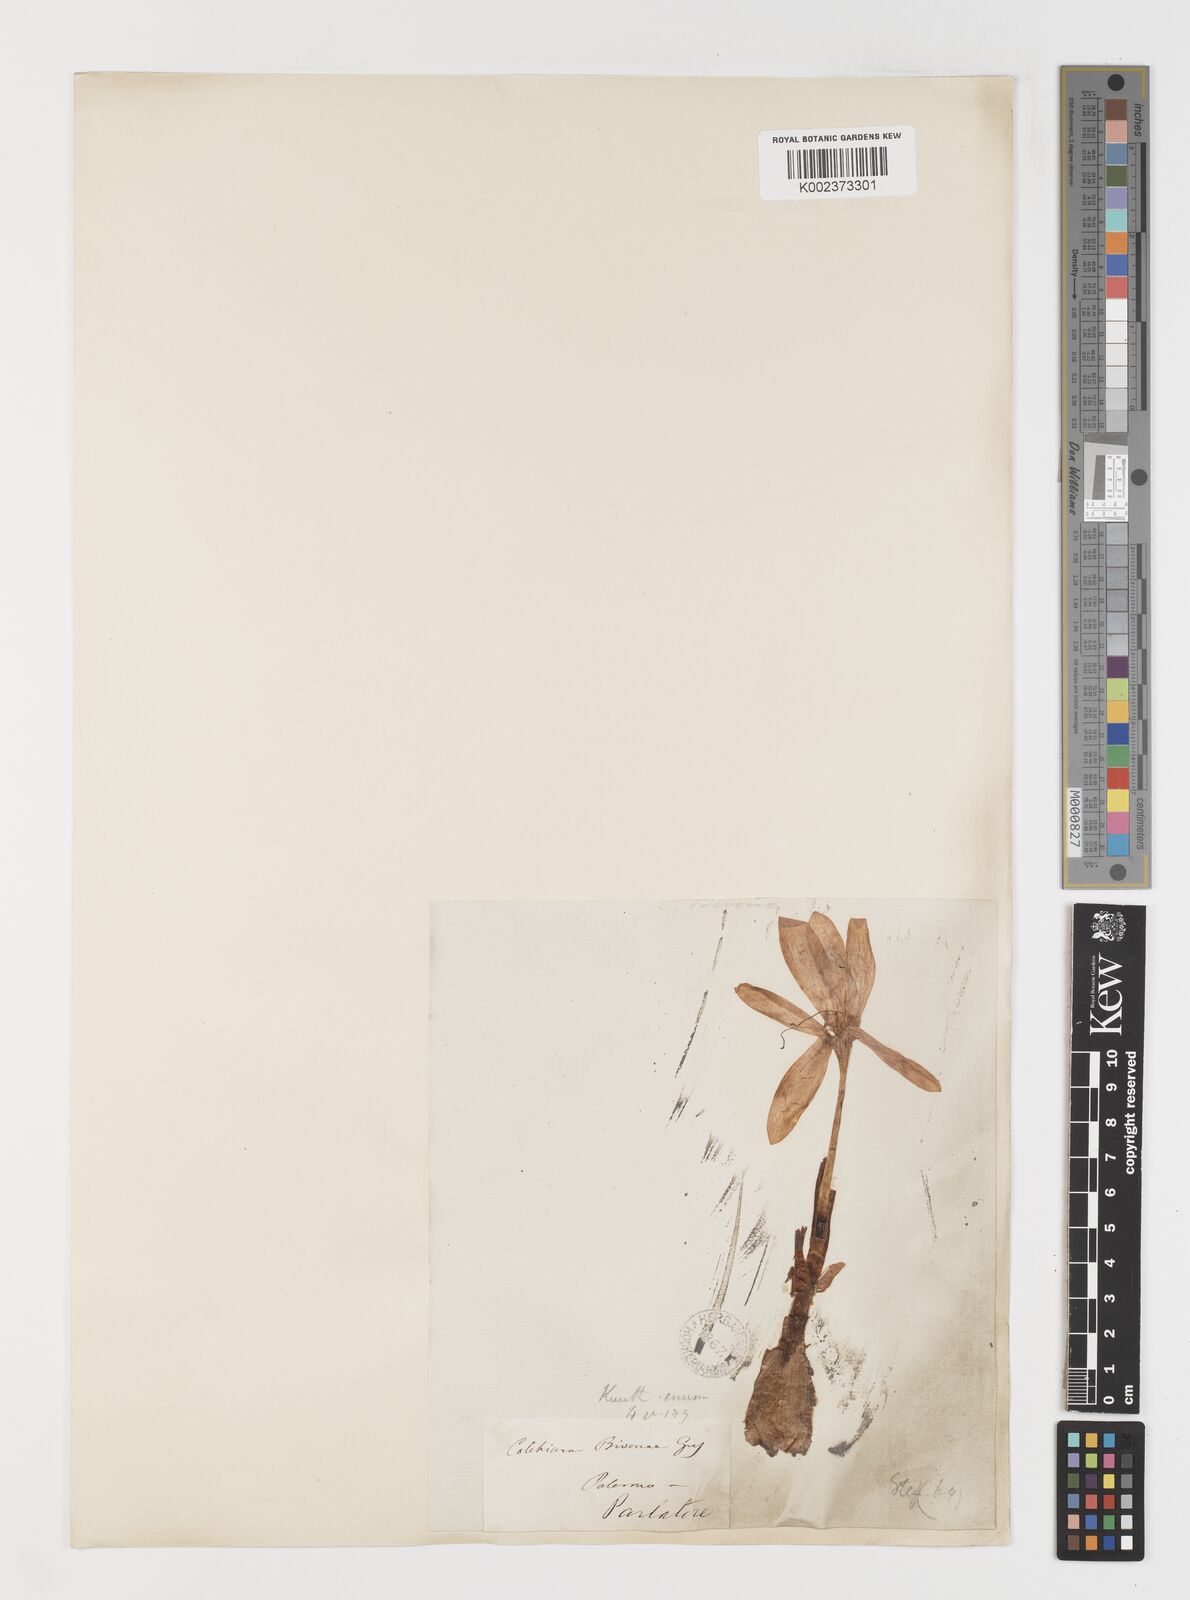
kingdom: Plantae
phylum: Tracheophyta
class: Liliopsida
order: Liliales
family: Colchicaceae
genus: Colchicum
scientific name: Colchicum bivonae
